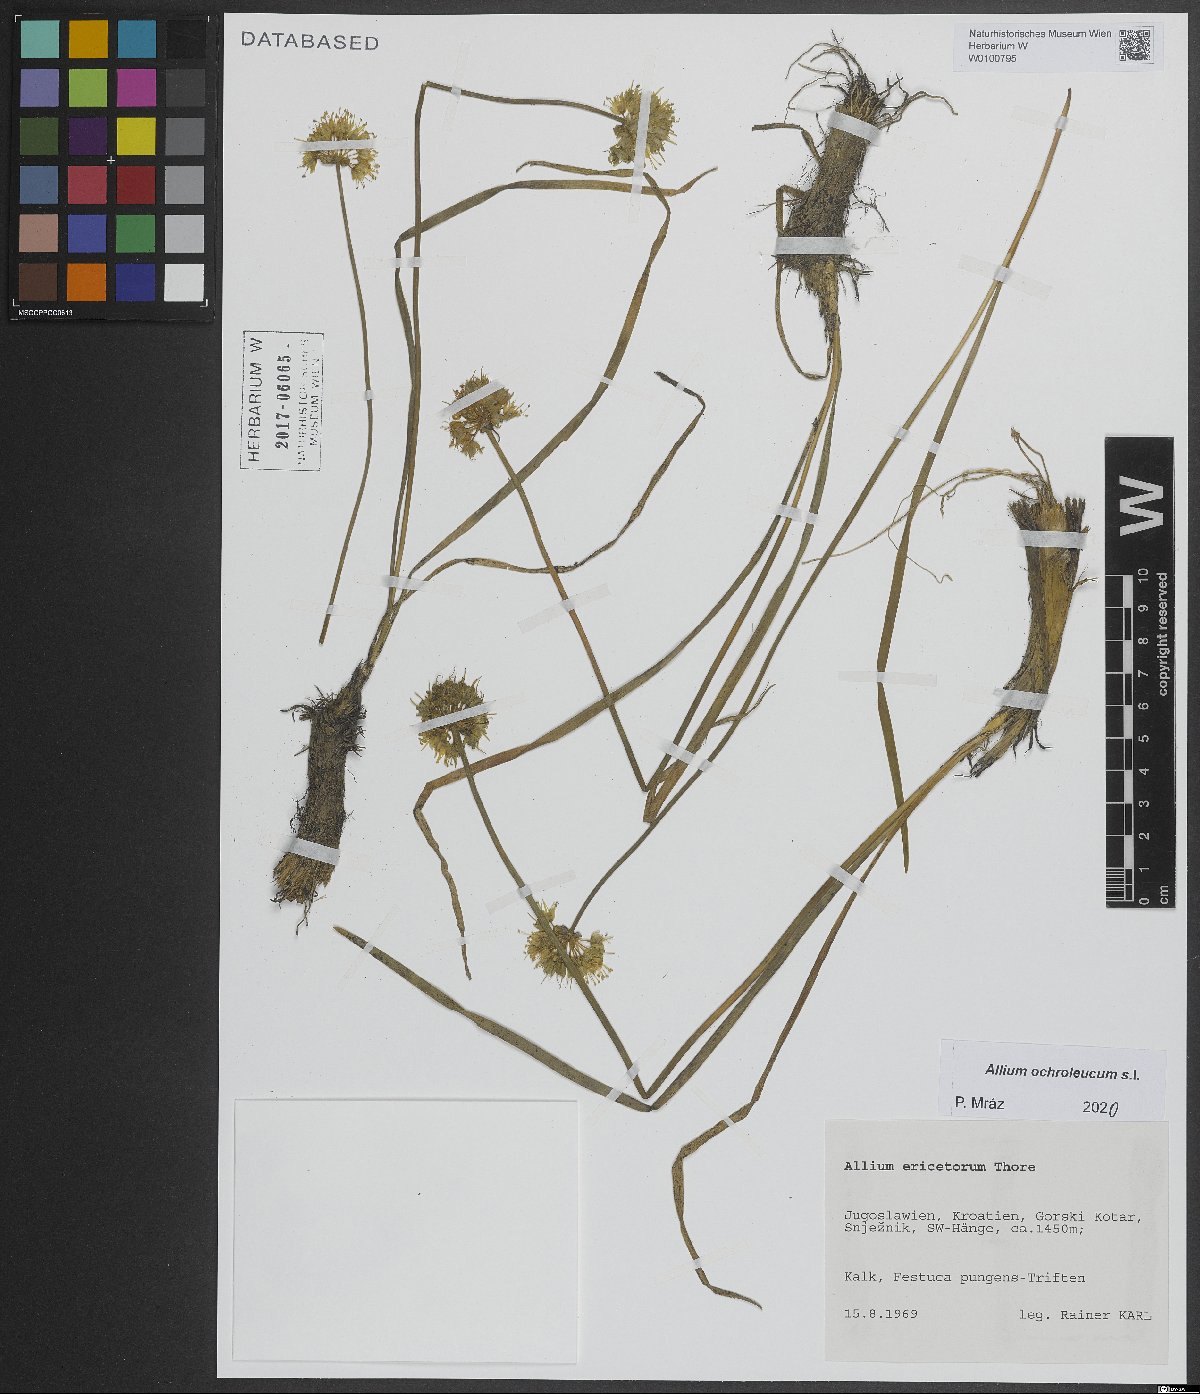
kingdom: Plantae
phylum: Tracheophyta
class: Liliopsida
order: Asparagales
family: Amaryllidaceae
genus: Allium
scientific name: Allium ericetorum
